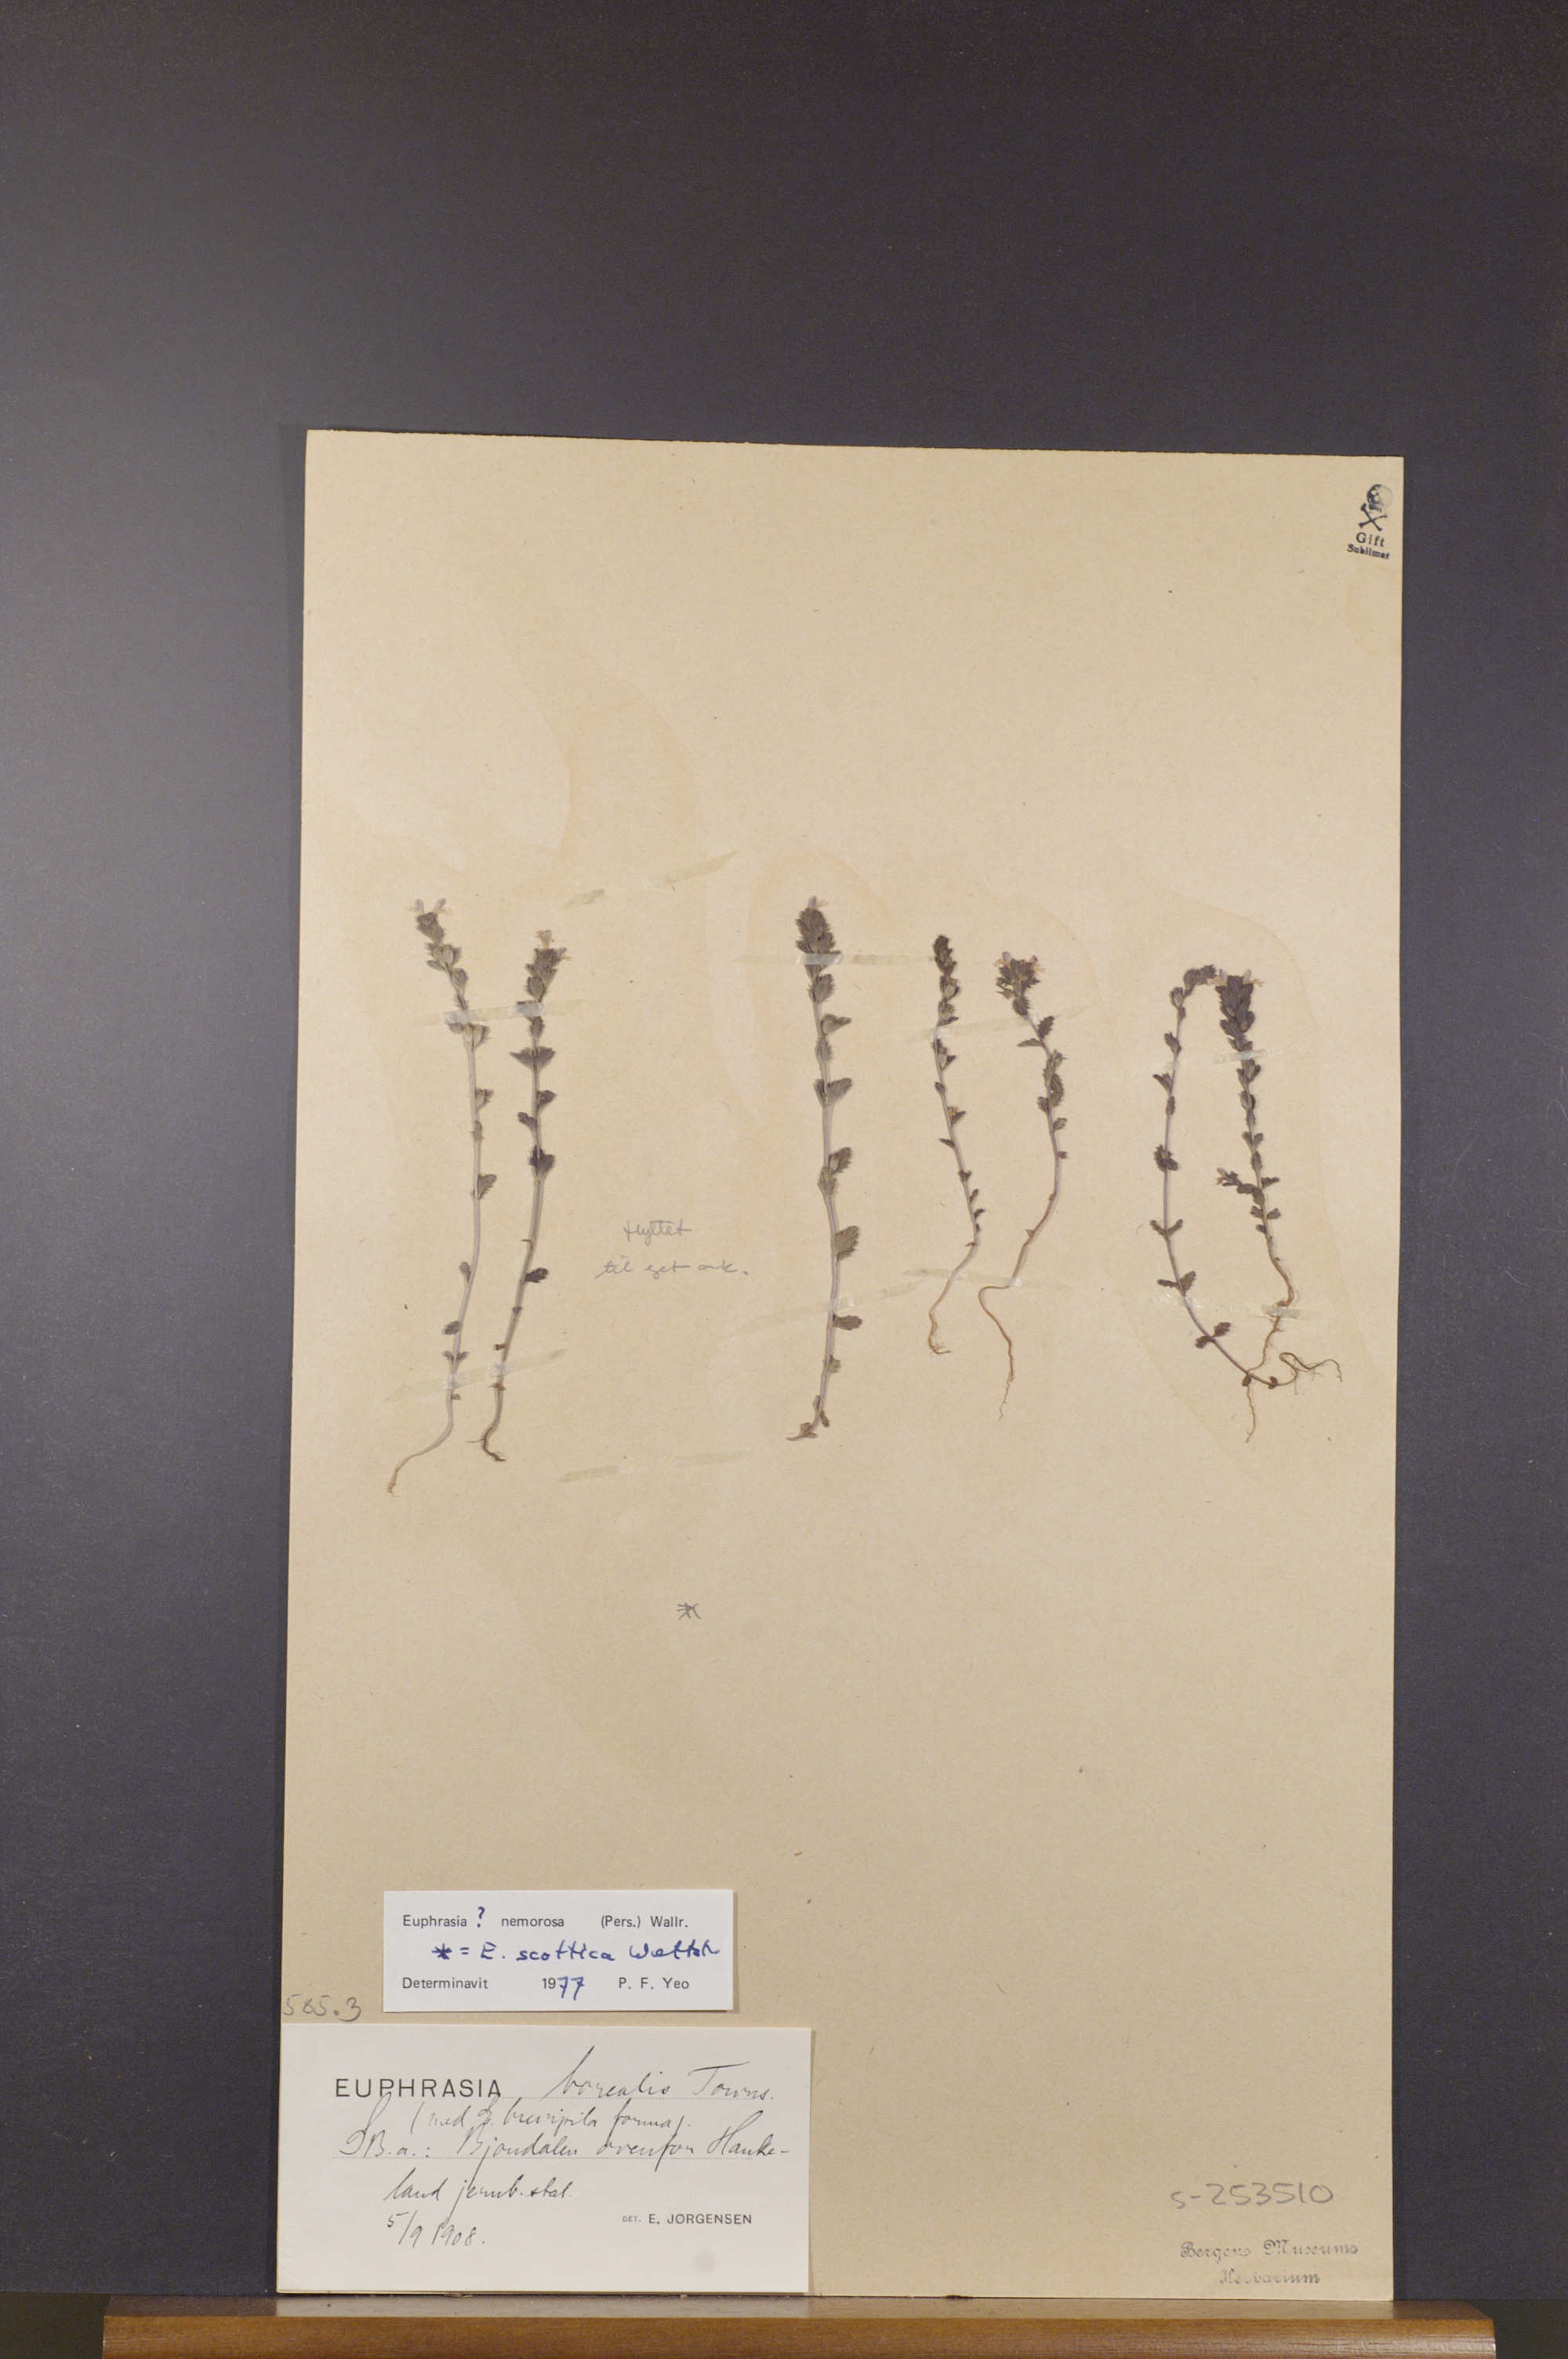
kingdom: Plantae
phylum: Tracheophyta
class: Magnoliopsida
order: Lamiales
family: Orobanchaceae
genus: Euphrasia
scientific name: Euphrasia nemorosa
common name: Common eyebright
